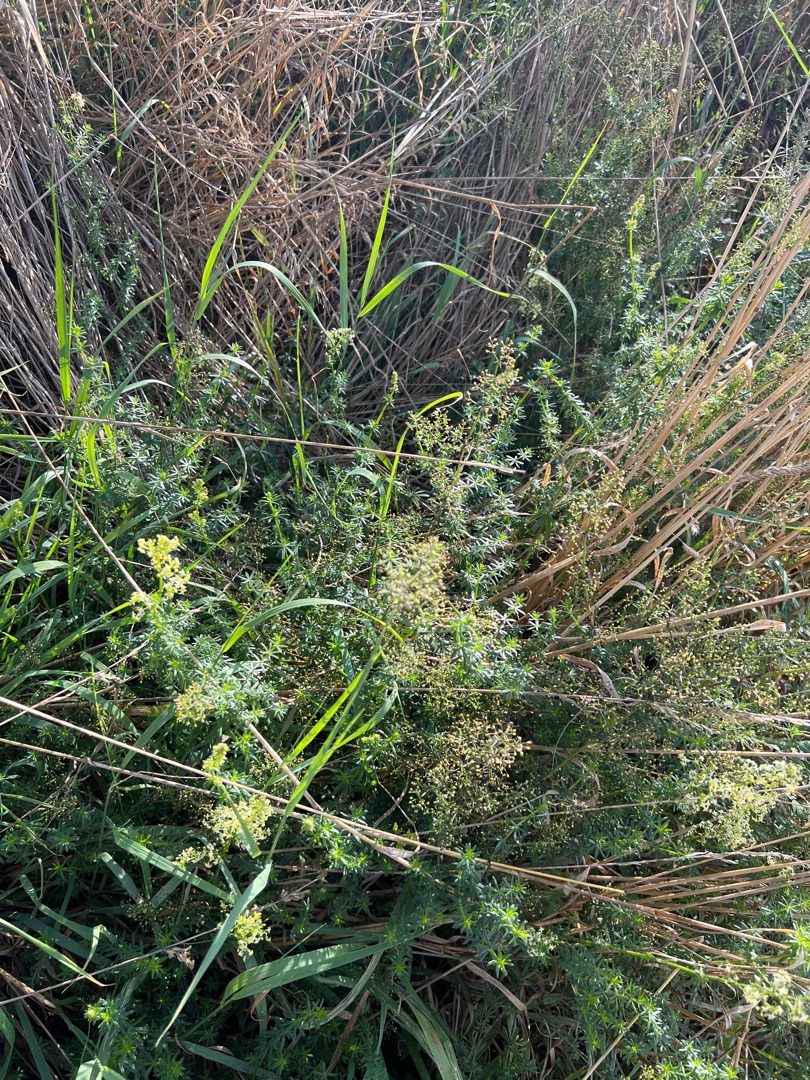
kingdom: Plantae
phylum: Tracheophyta
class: Magnoliopsida
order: Gentianales
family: Rubiaceae
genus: Galium
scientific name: Galium
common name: Hvidgul snerre
